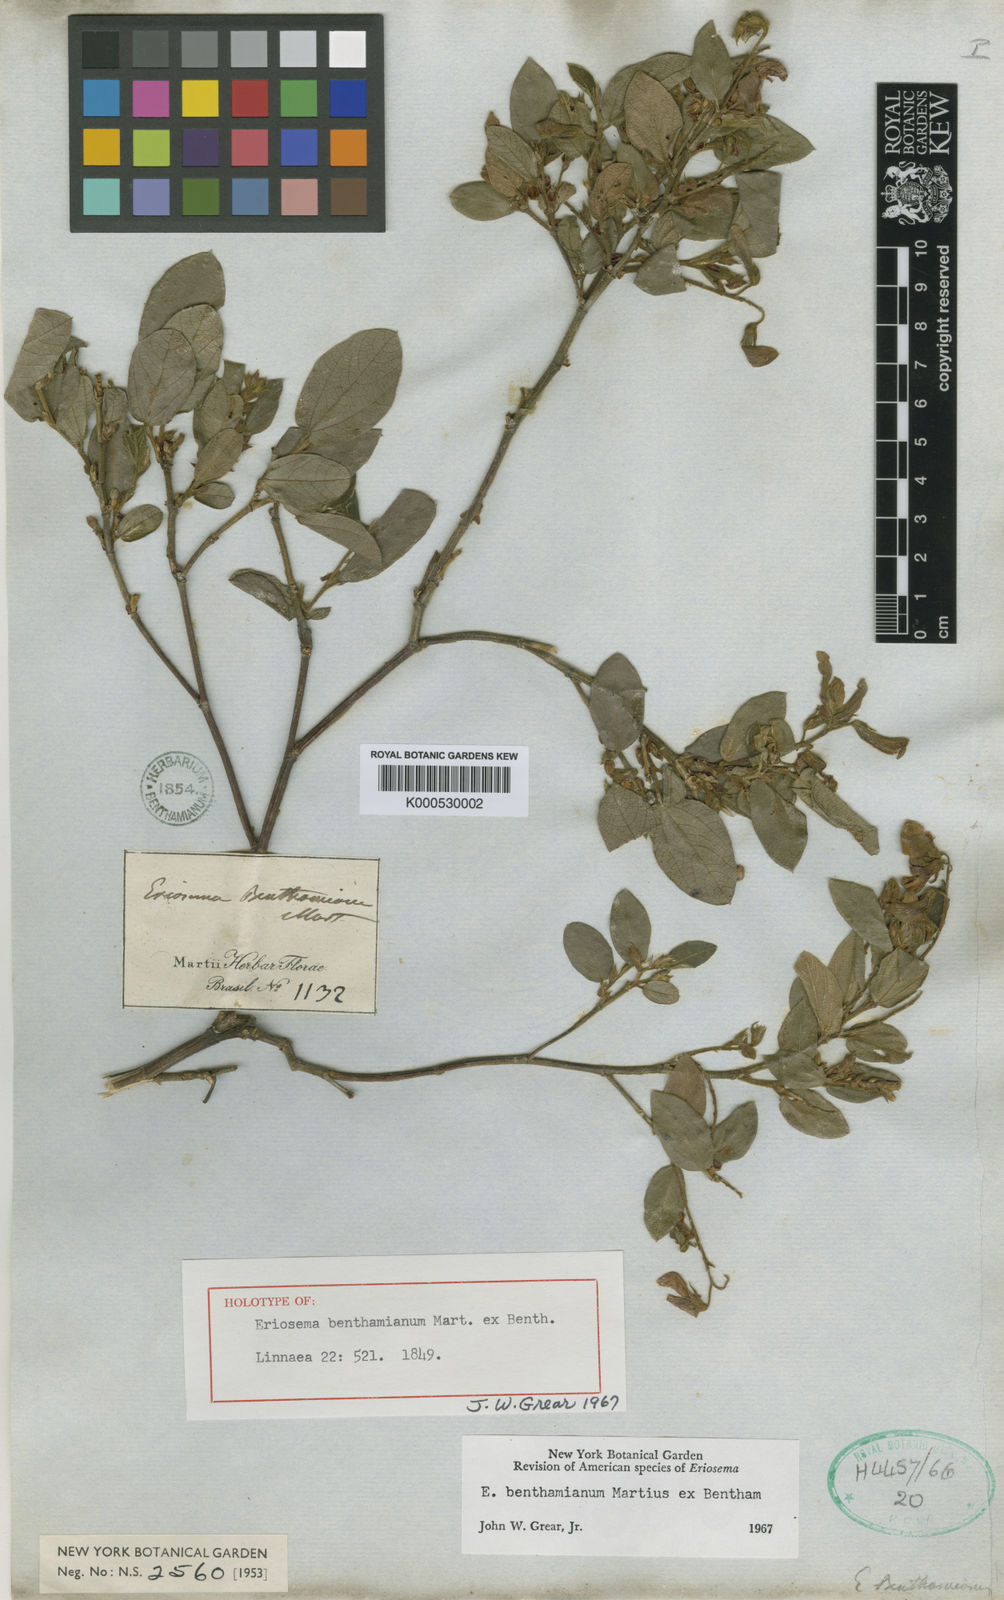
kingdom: Plantae
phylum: Tracheophyta
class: Magnoliopsida
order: Fabales
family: Fabaceae
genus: Eriosema
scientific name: Eriosema benthamianum
